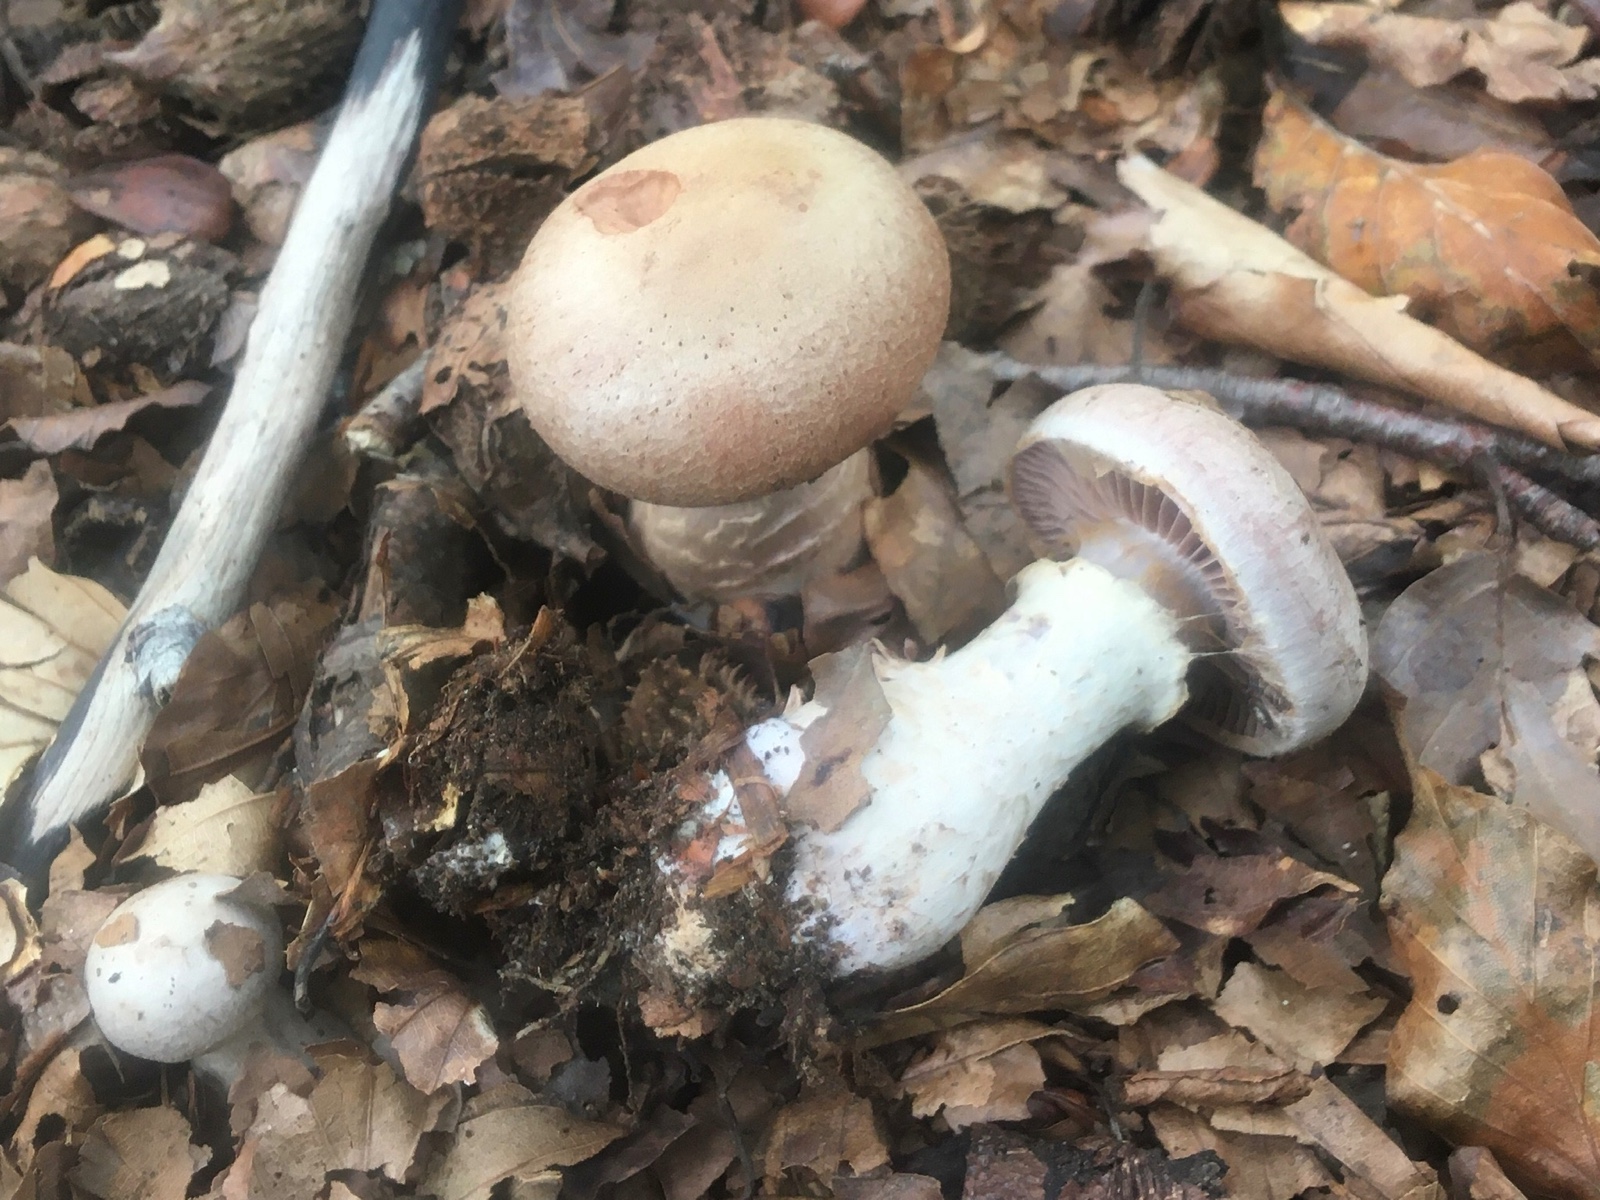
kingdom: Fungi
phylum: Basidiomycota
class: Agaricomycetes
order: Agaricales
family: Cortinariaceae
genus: Cortinarius
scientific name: Cortinarius torvus
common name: champignonagtig slørhat
